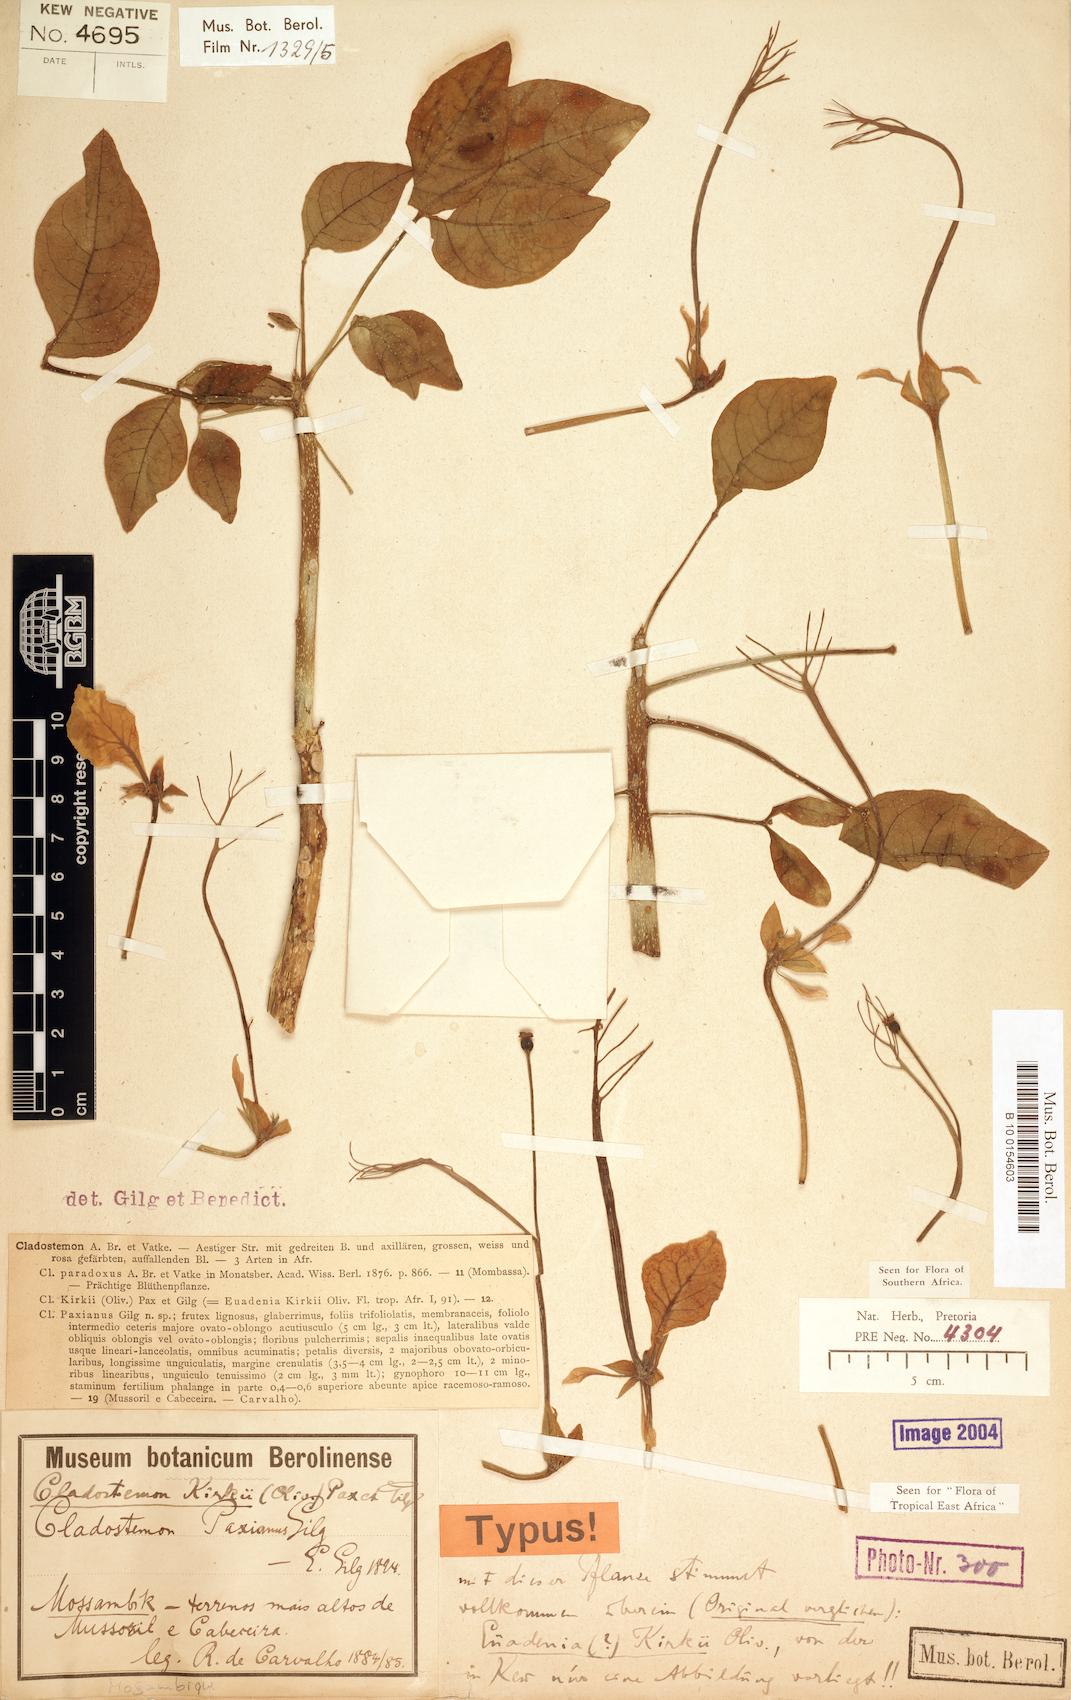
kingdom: Plantae
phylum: Tracheophyta
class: Magnoliopsida
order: Brassicales
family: Capparaceae
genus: Cladostemon
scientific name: Cladostemon kirkii
